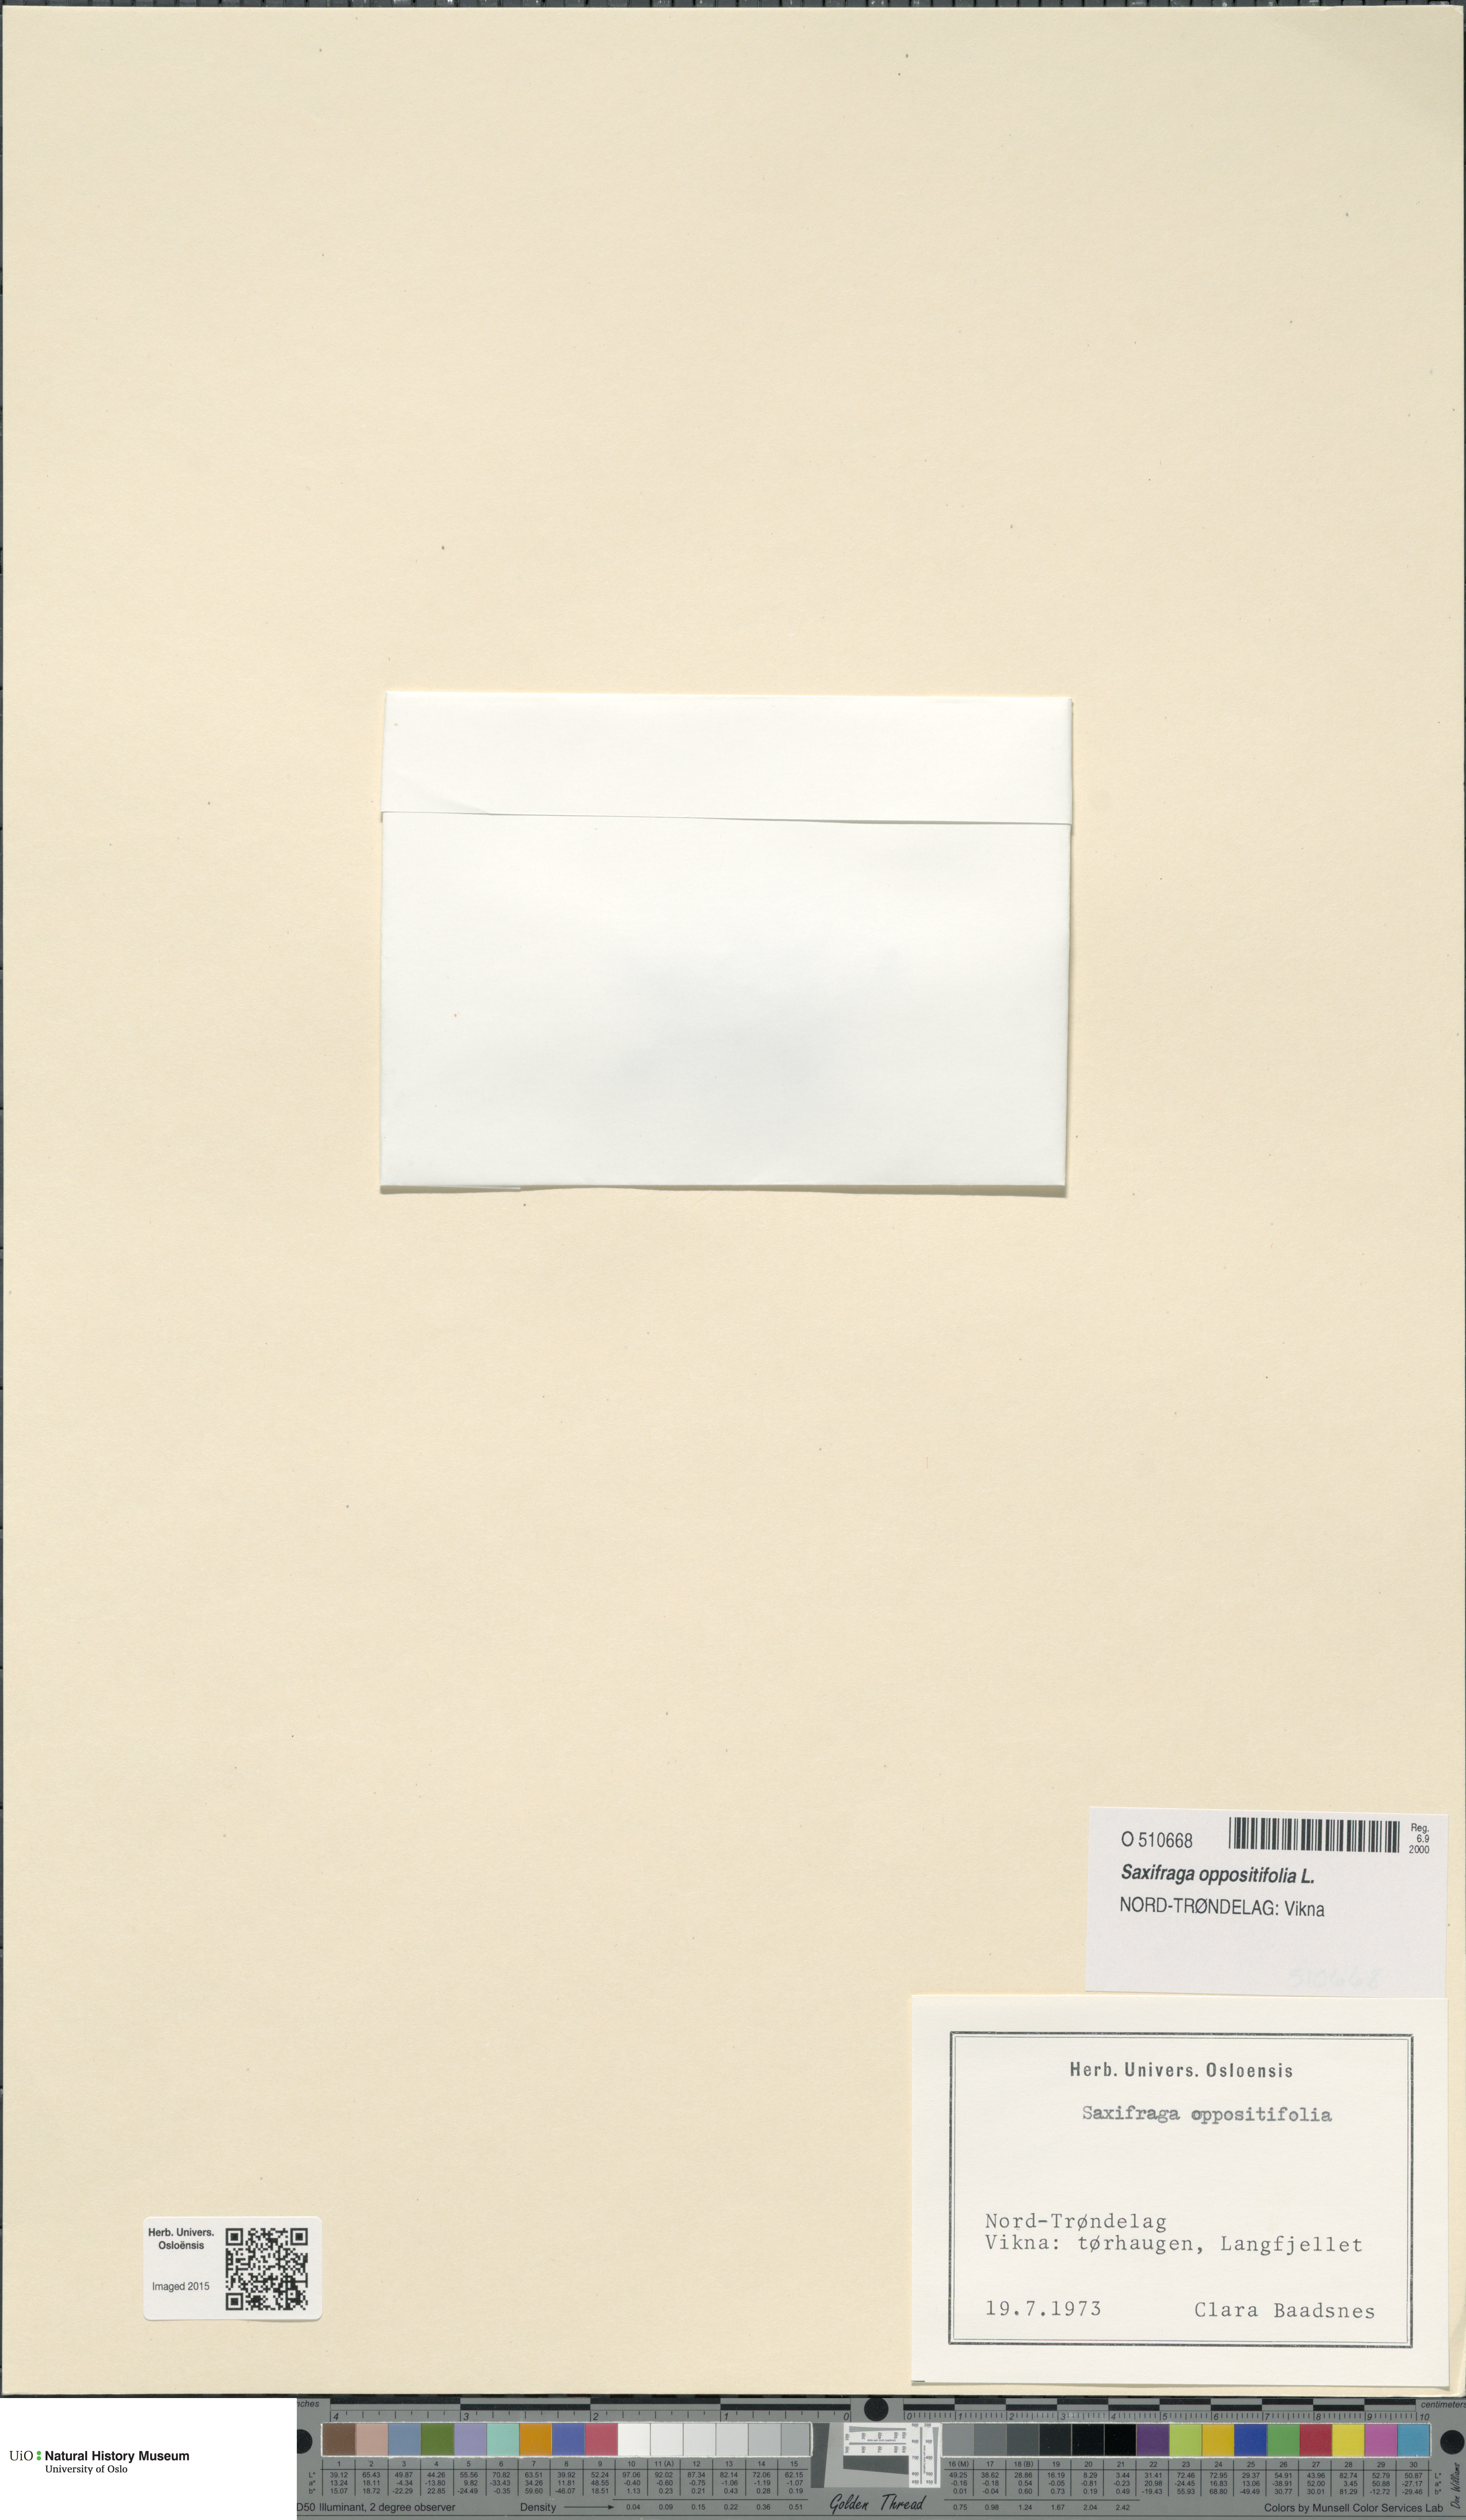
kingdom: Plantae
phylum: Tracheophyta
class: Magnoliopsida
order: Saxifragales
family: Saxifragaceae
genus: Saxifraga
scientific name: Saxifraga oppositifolia
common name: Purple saxifrage
